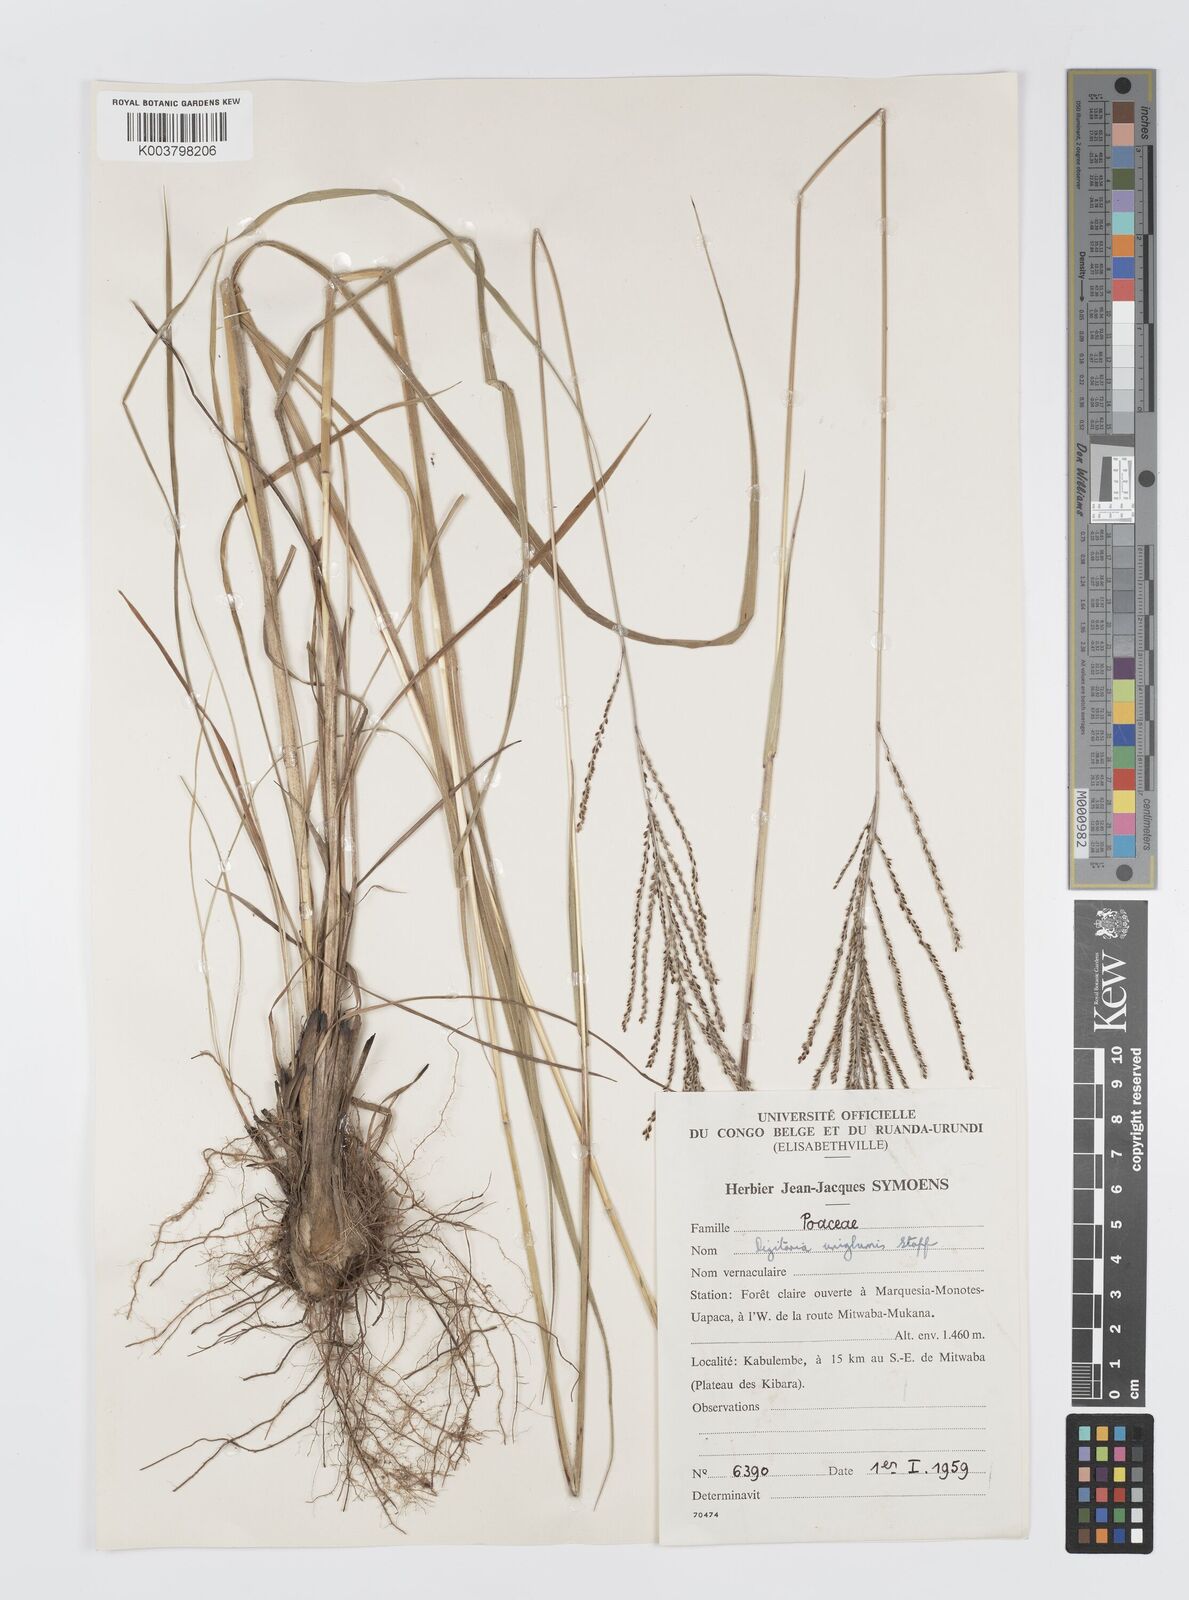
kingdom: Plantae
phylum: Tracheophyta
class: Liliopsida
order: Poales
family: Poaceae
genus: Digitaria
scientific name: Digitaria diagonalis
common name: Brown-seed finger grass
